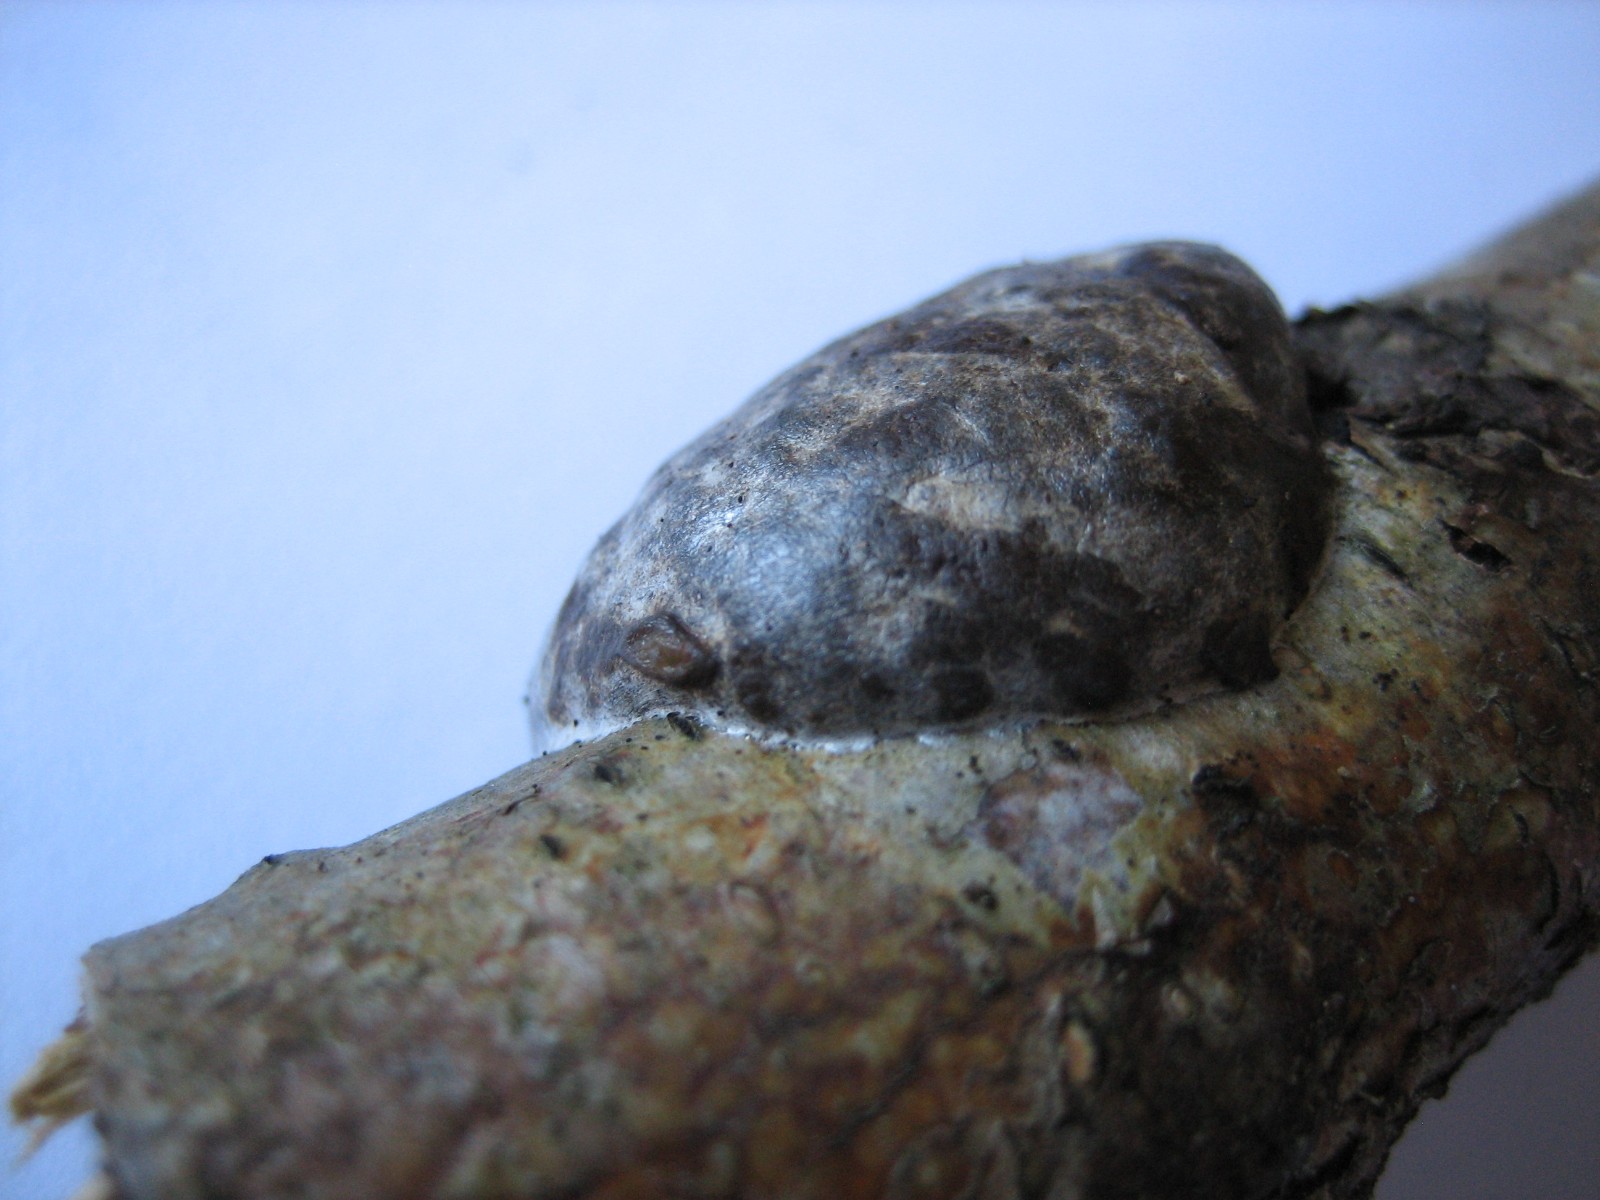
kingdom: Protozoa
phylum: Mycetozoa
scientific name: Mycetozoa
